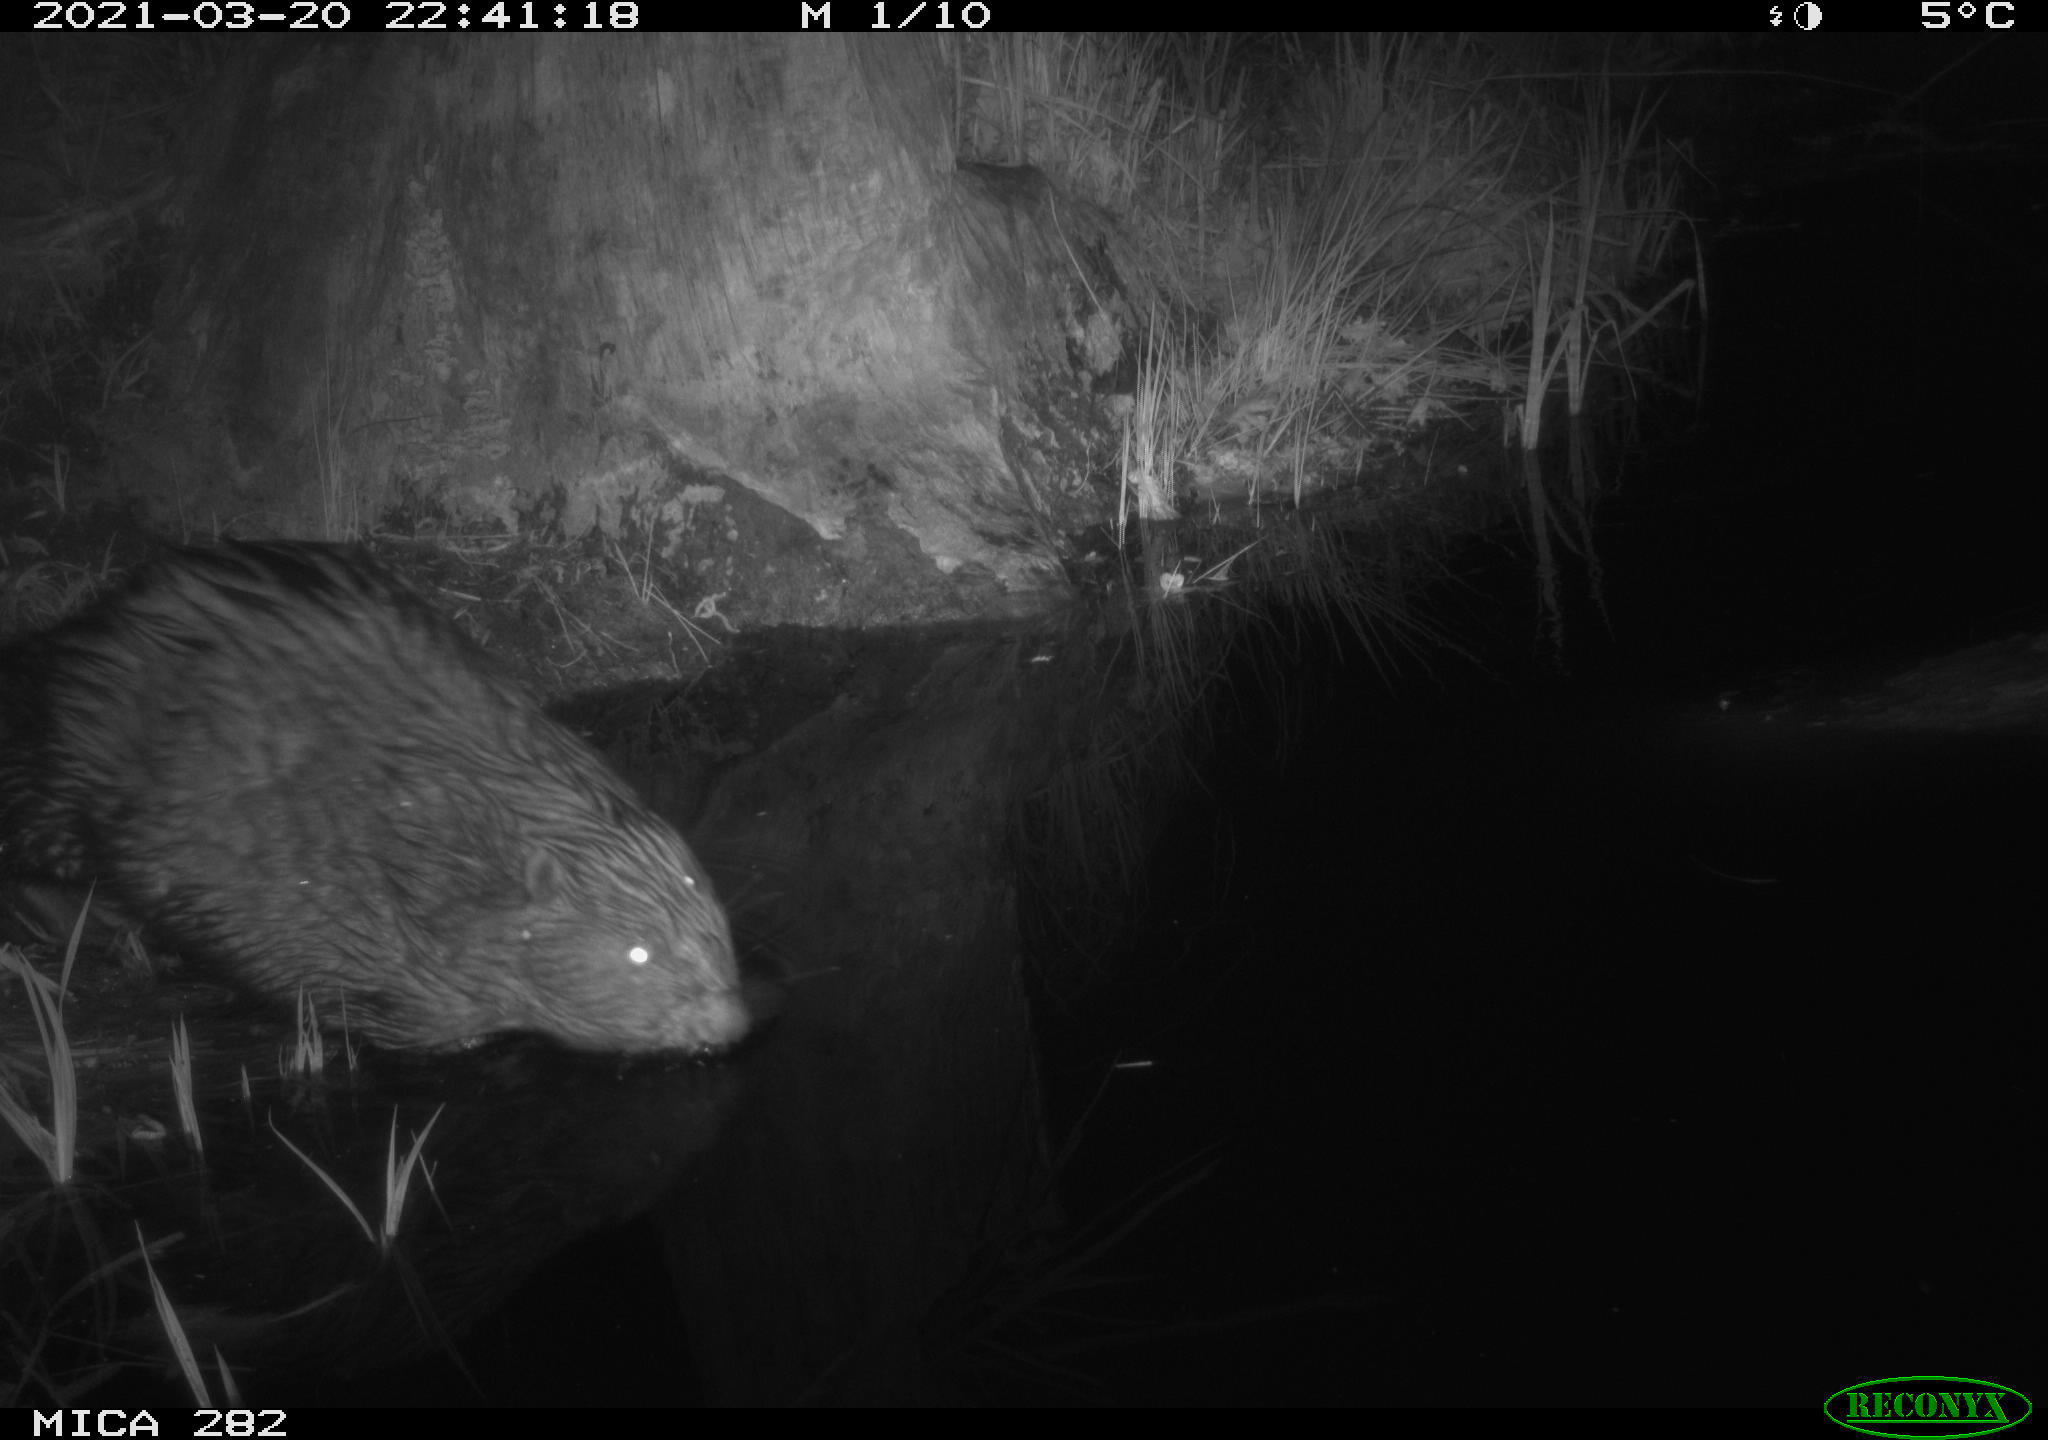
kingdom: Animalia
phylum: Chordata
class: Mammalia
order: Rodentia
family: Castoridae
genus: Castor
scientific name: Castor fiber
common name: Eurasian beaver
